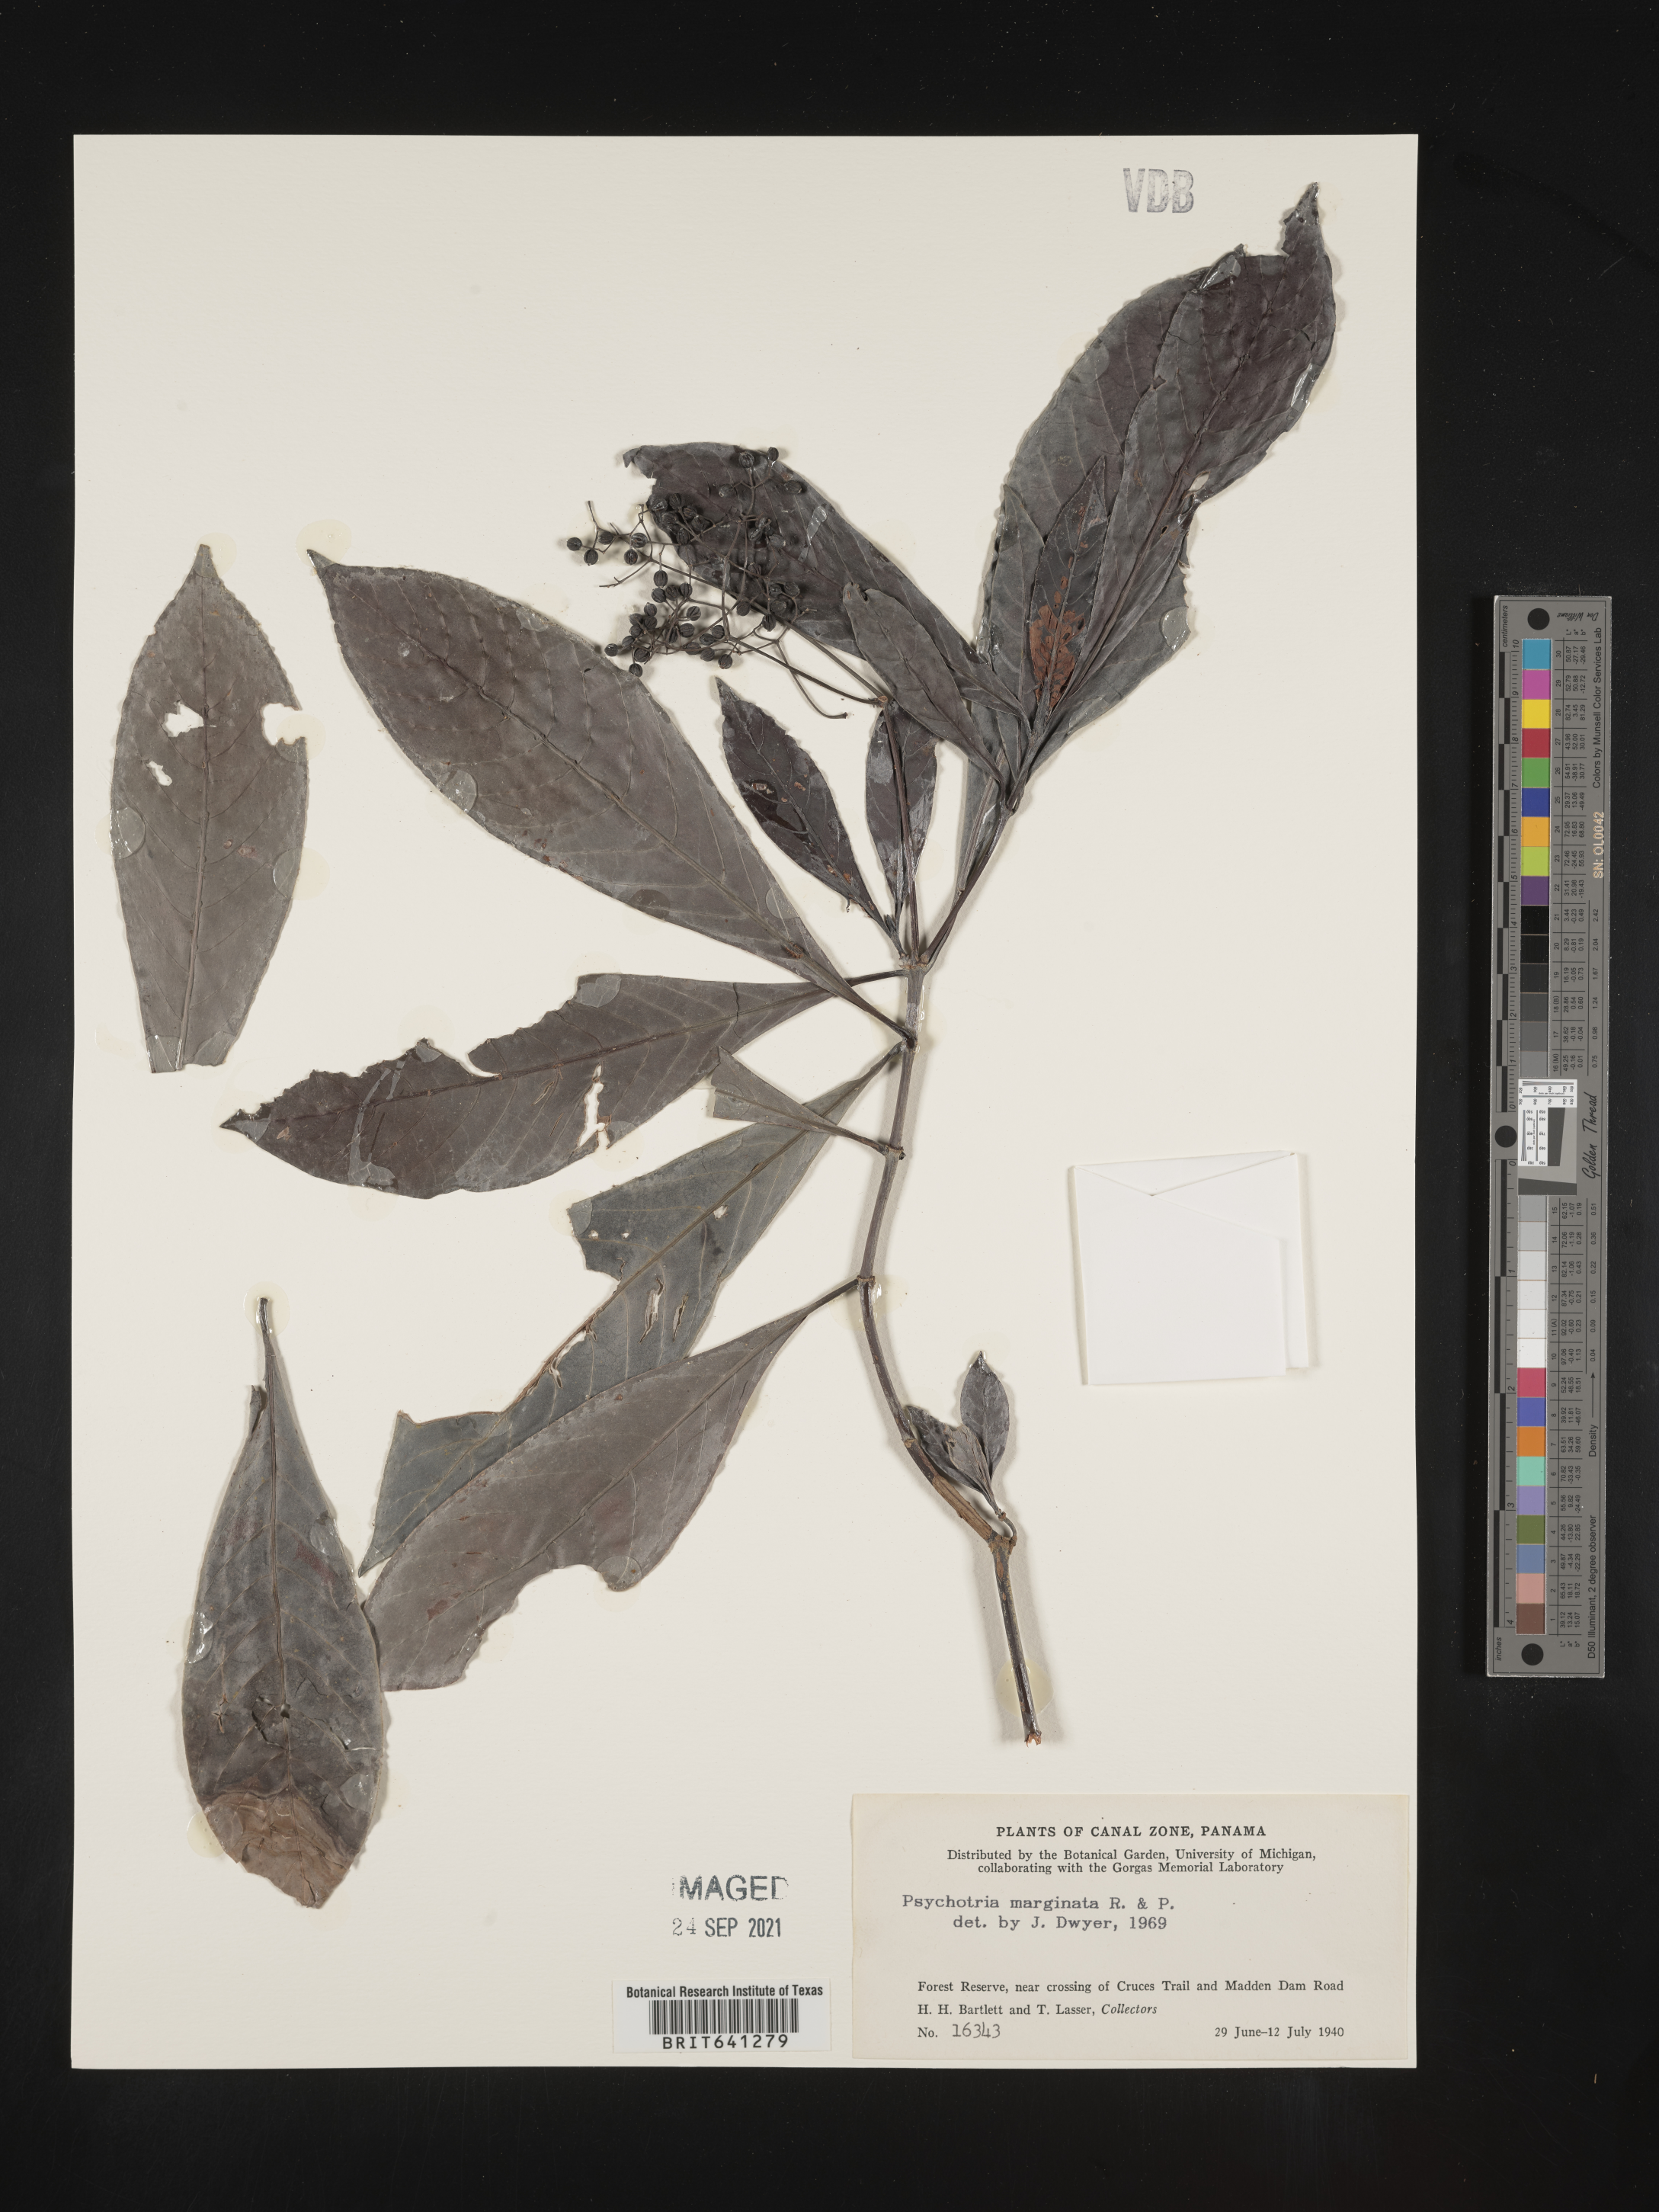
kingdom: Plantae
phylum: Tracheophyta
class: Magnoliopsida
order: Gentianales
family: Rubiaceae
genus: Psychotria
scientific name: Psychotria
